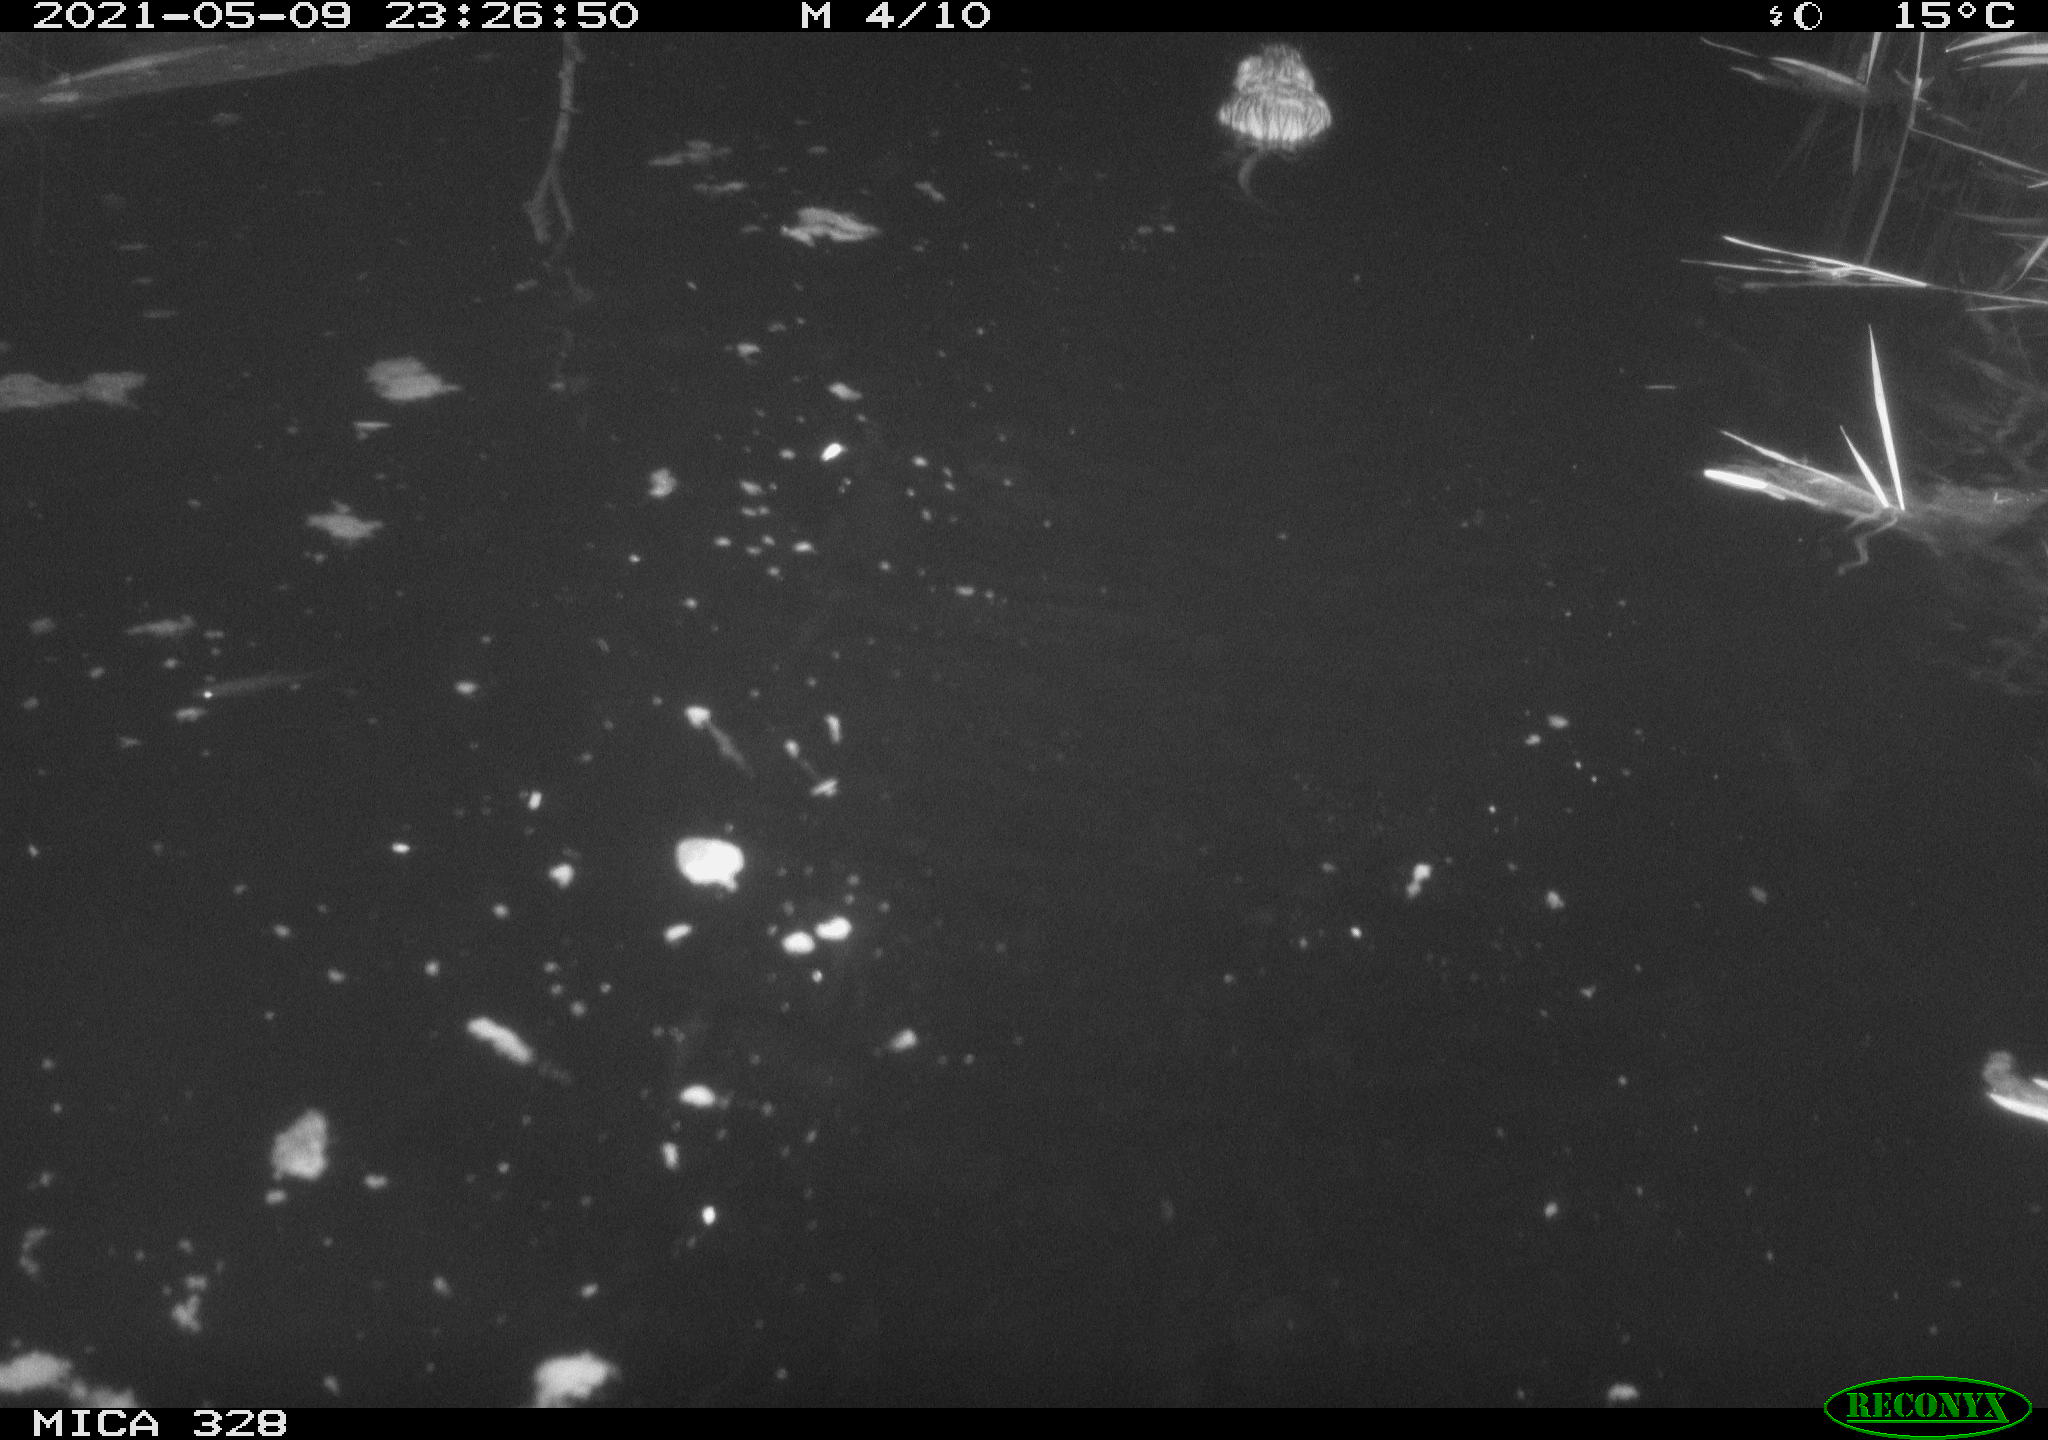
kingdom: Animalia
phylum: Chordata
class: Mammalia
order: Rodentia
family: Cricetidae
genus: Ondatra
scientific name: Ondatra zibethicus
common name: Muskrat
